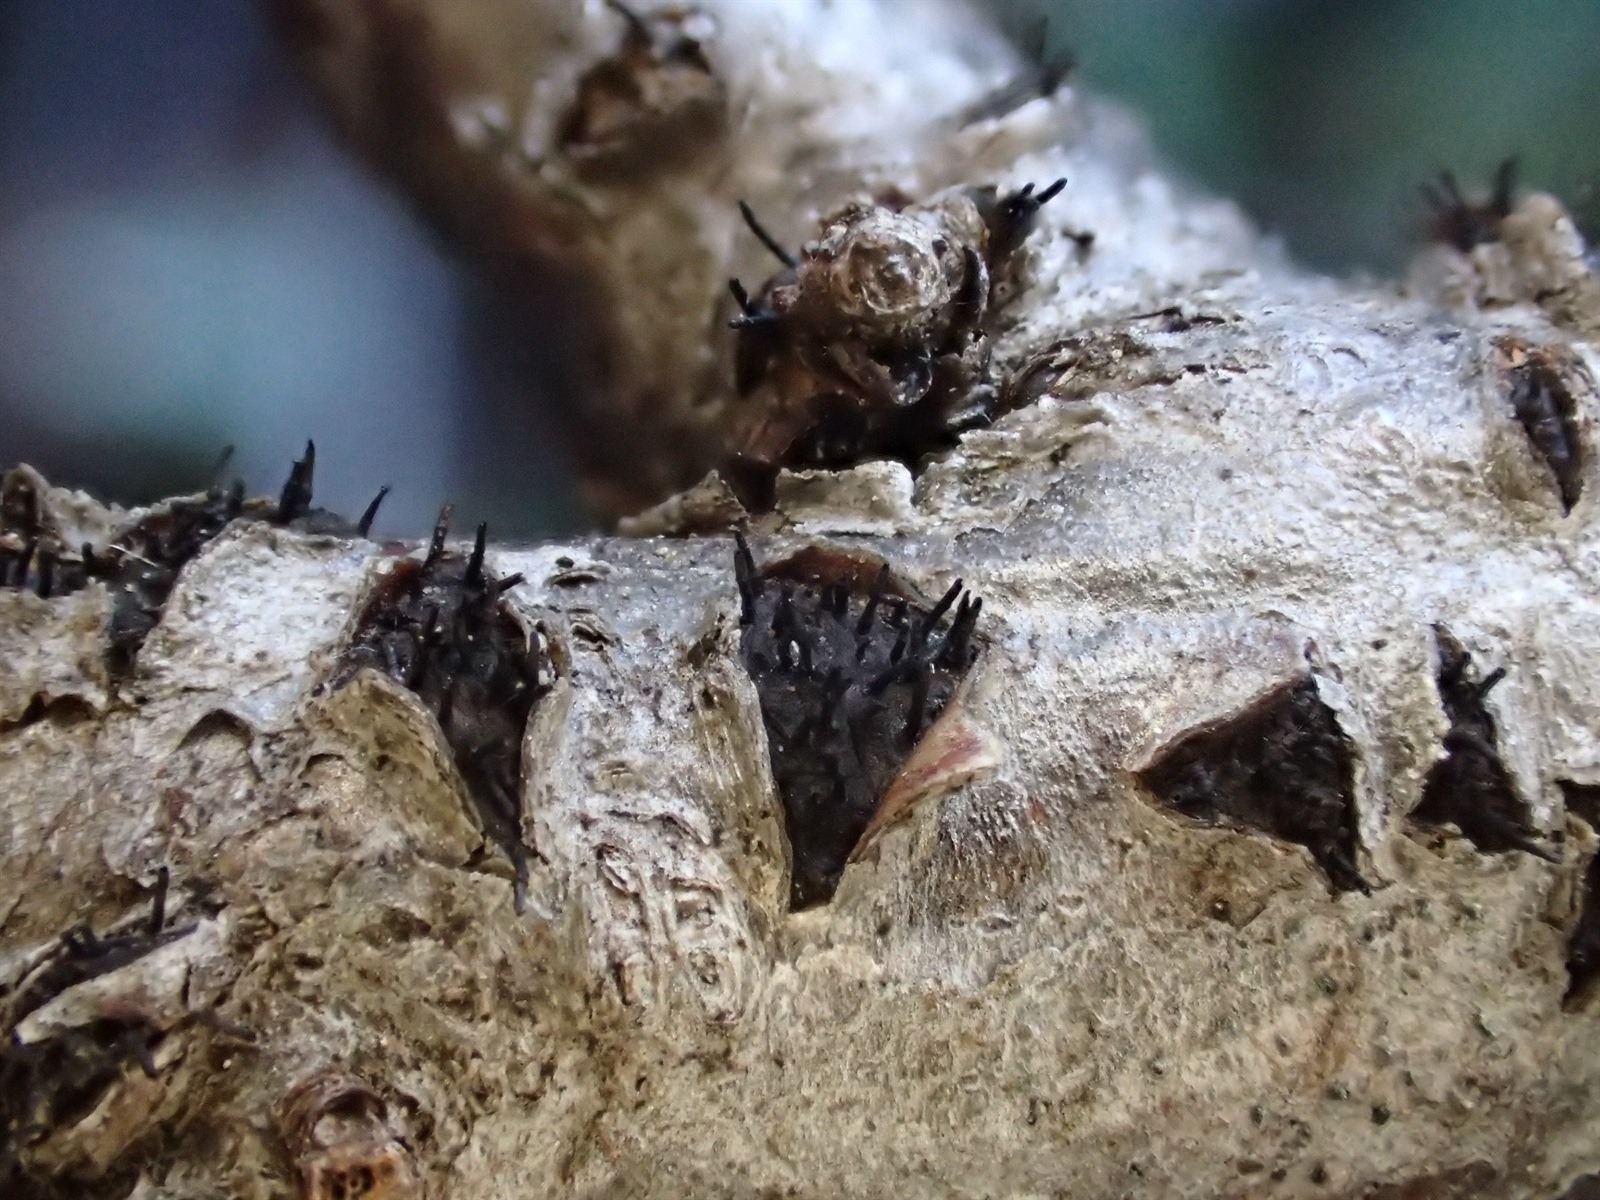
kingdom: Fungi
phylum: Ascomycota
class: Sordariomycetes
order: Diaporthales
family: Gnomoniaceae
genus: Diaporthella
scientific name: Diaporthella aristata
